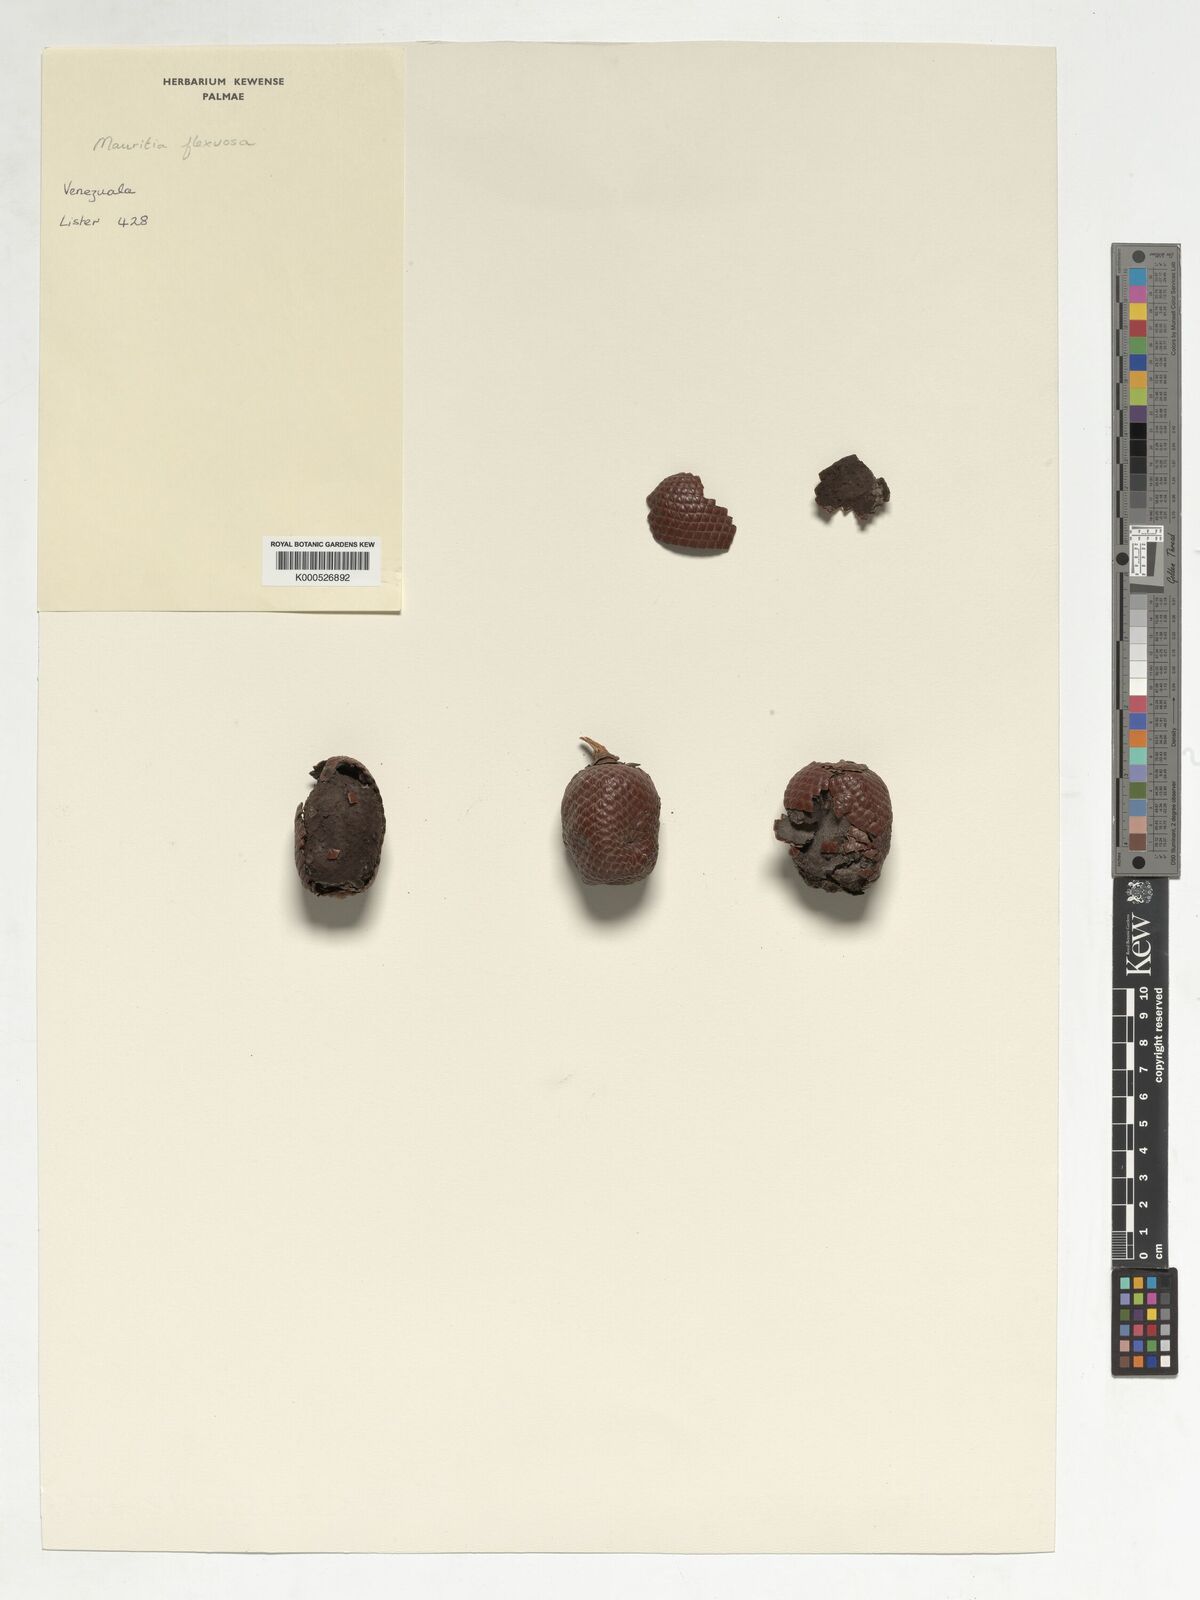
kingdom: Plantae
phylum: Tracheophyta
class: Liliopsida
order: Arecales
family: Arecaceae
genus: Mauritia
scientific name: Mauritia flexuosa
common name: Tree-of-life
